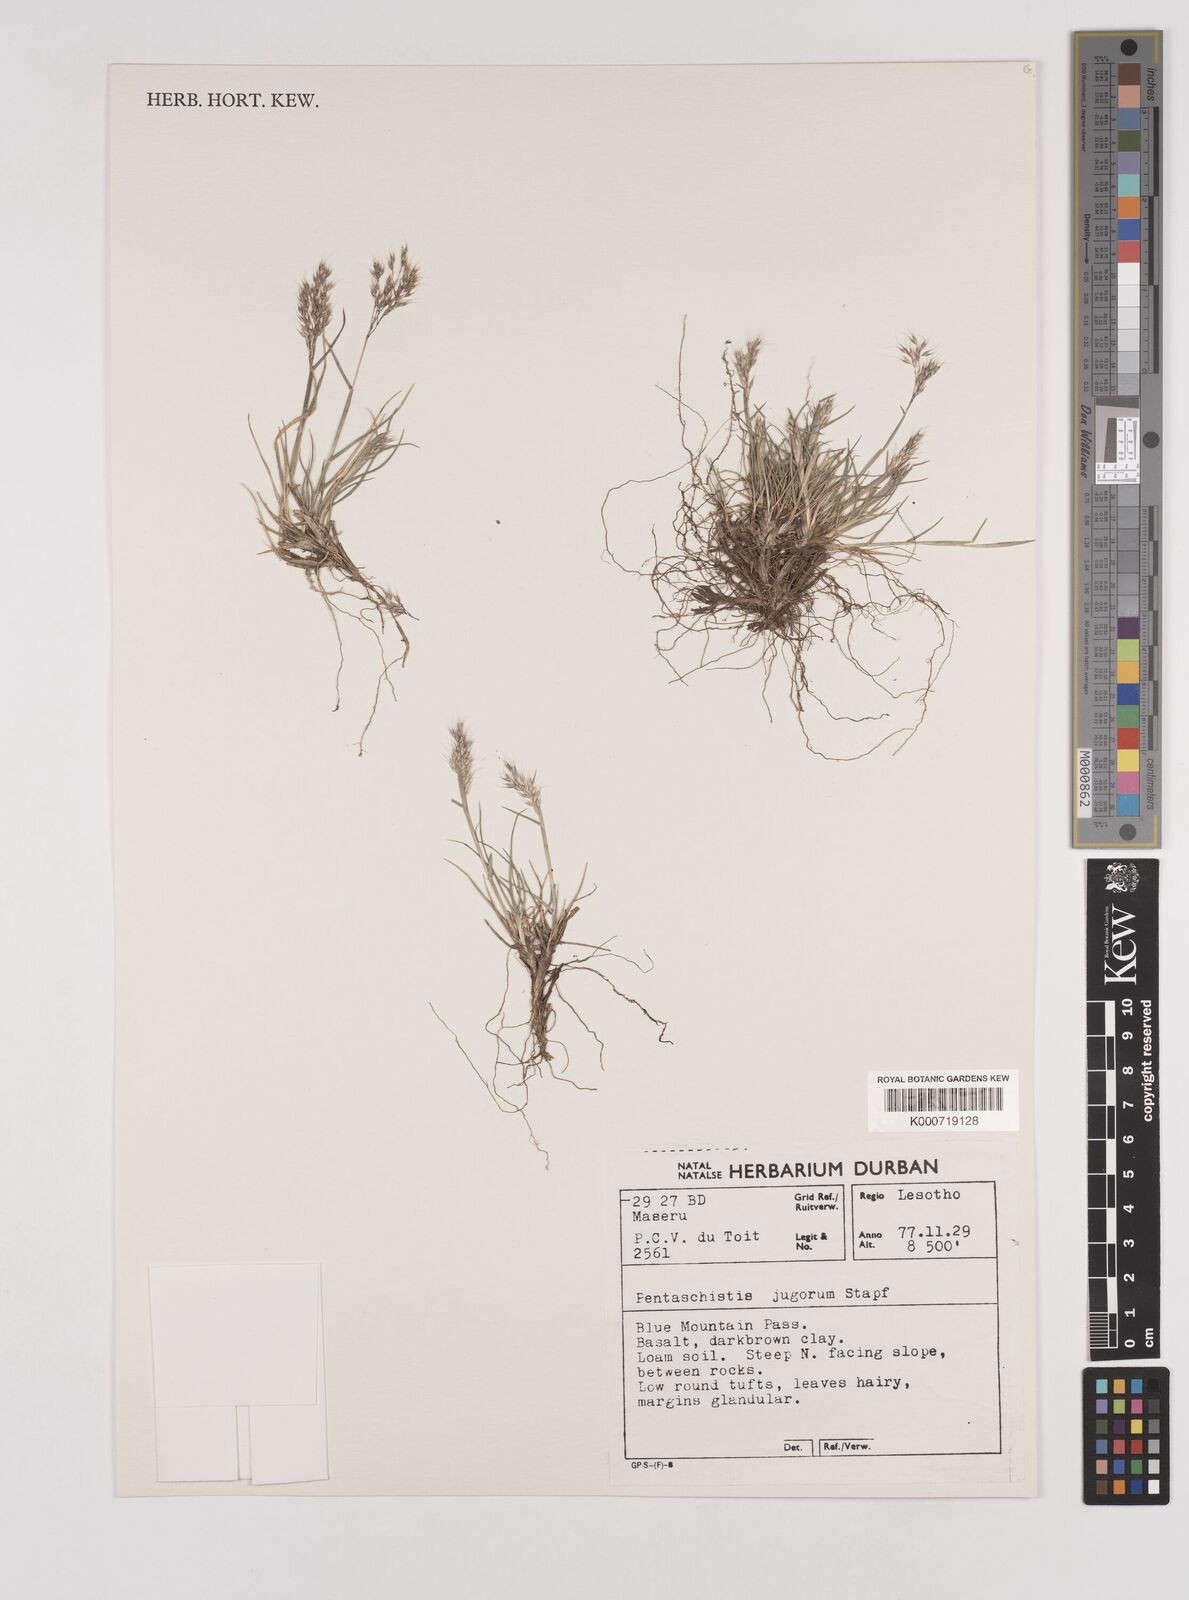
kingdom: Plantae
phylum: Tracheophyta
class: Liliopsida
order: Poales
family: Poaceae
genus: Pentameris
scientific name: Pentameris airoides
